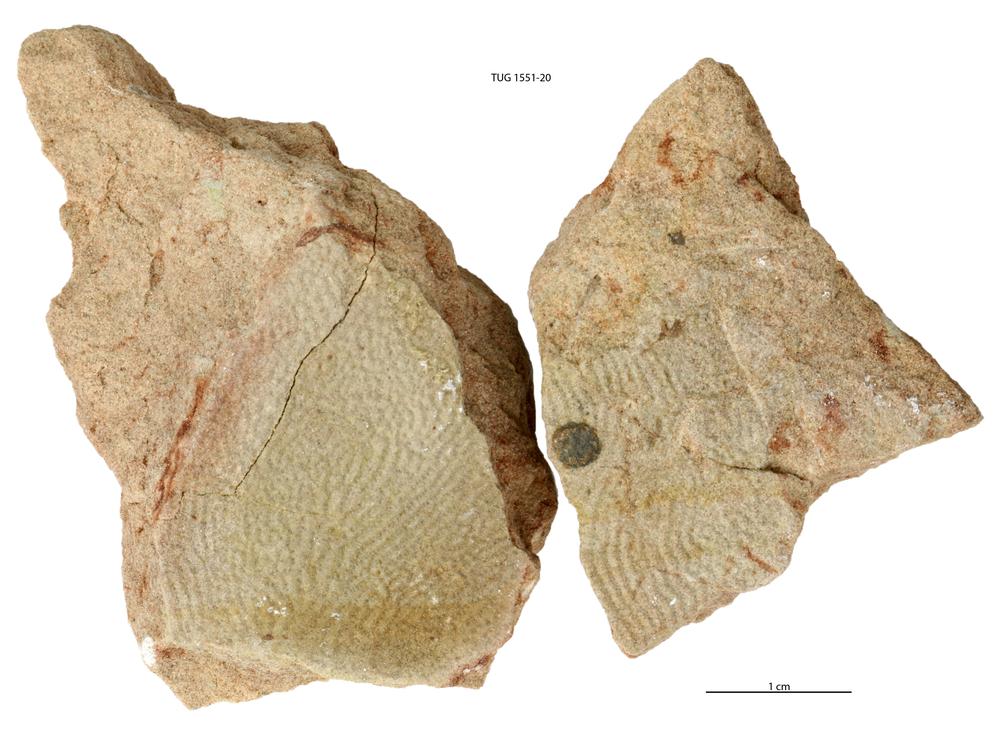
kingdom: Animalia
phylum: Chordata
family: Holonematidae
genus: Holonema
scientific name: Holonema
